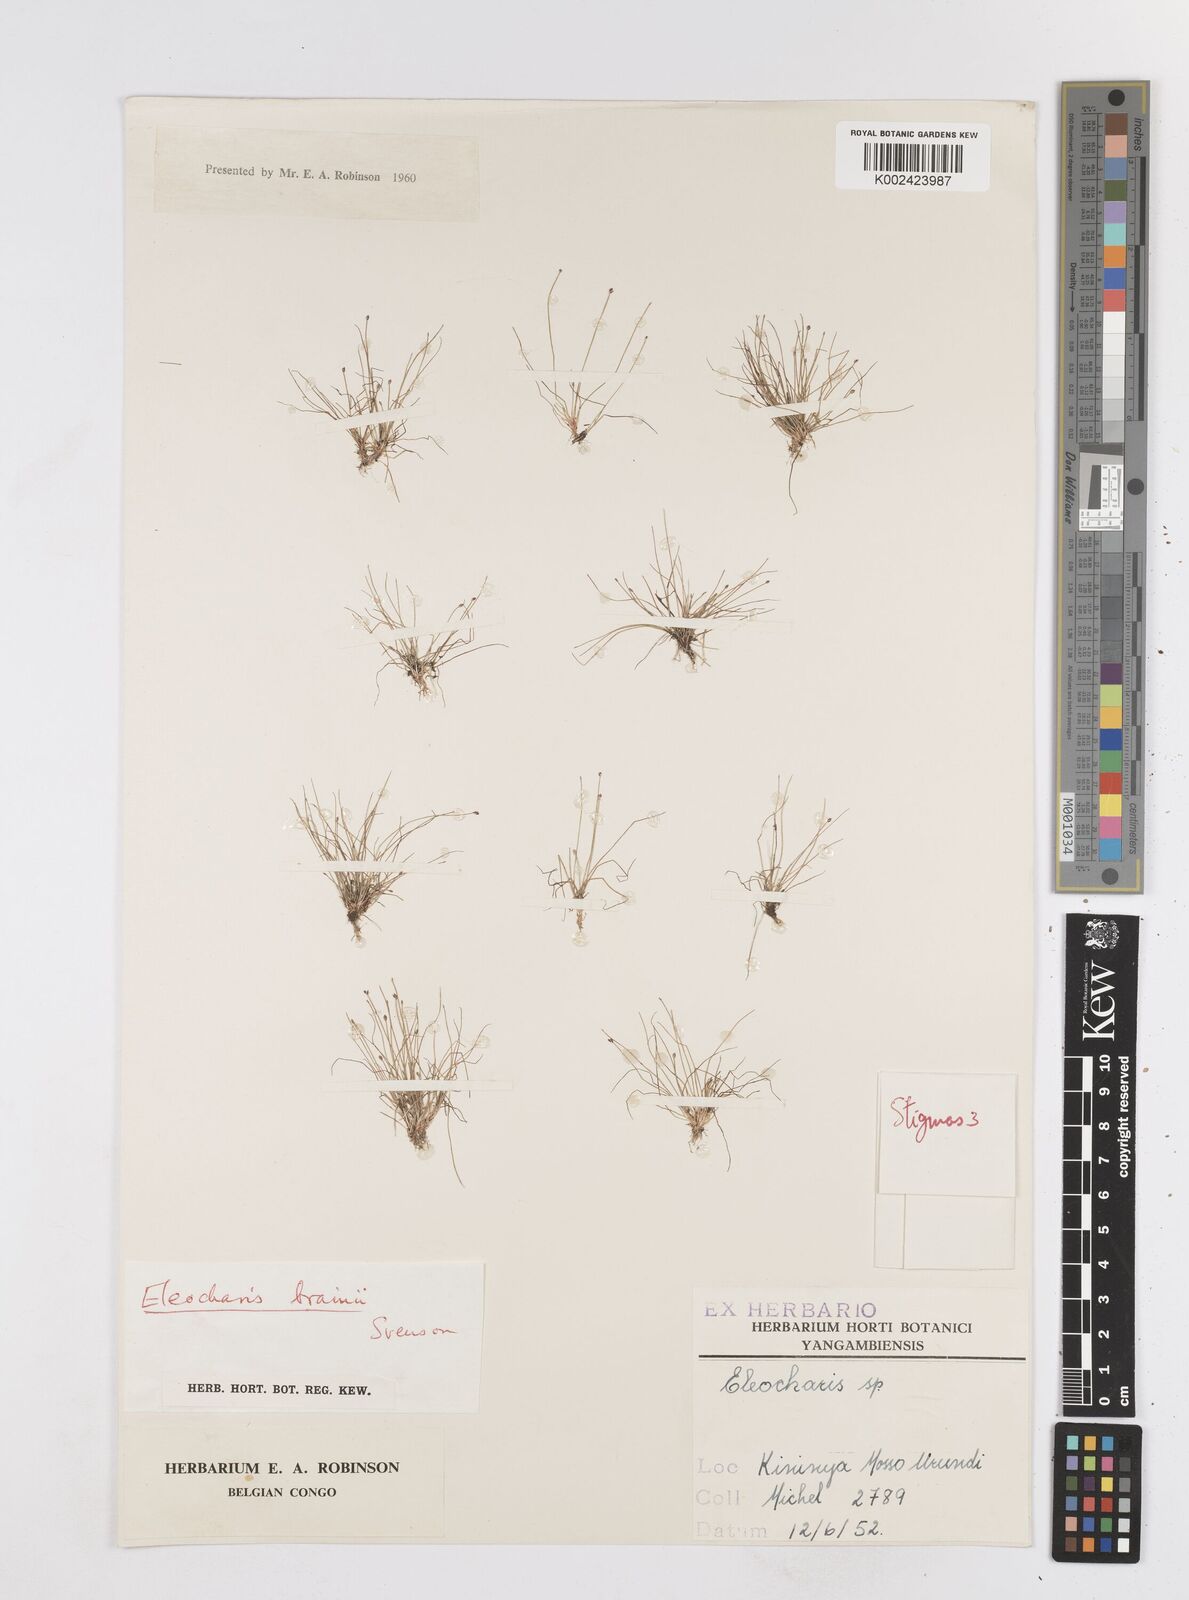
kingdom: Plantae
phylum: Tracheophyta
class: Liliopsida
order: Poales
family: Cyperaceae
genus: Eleocharis
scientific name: Eleocharis brainii
